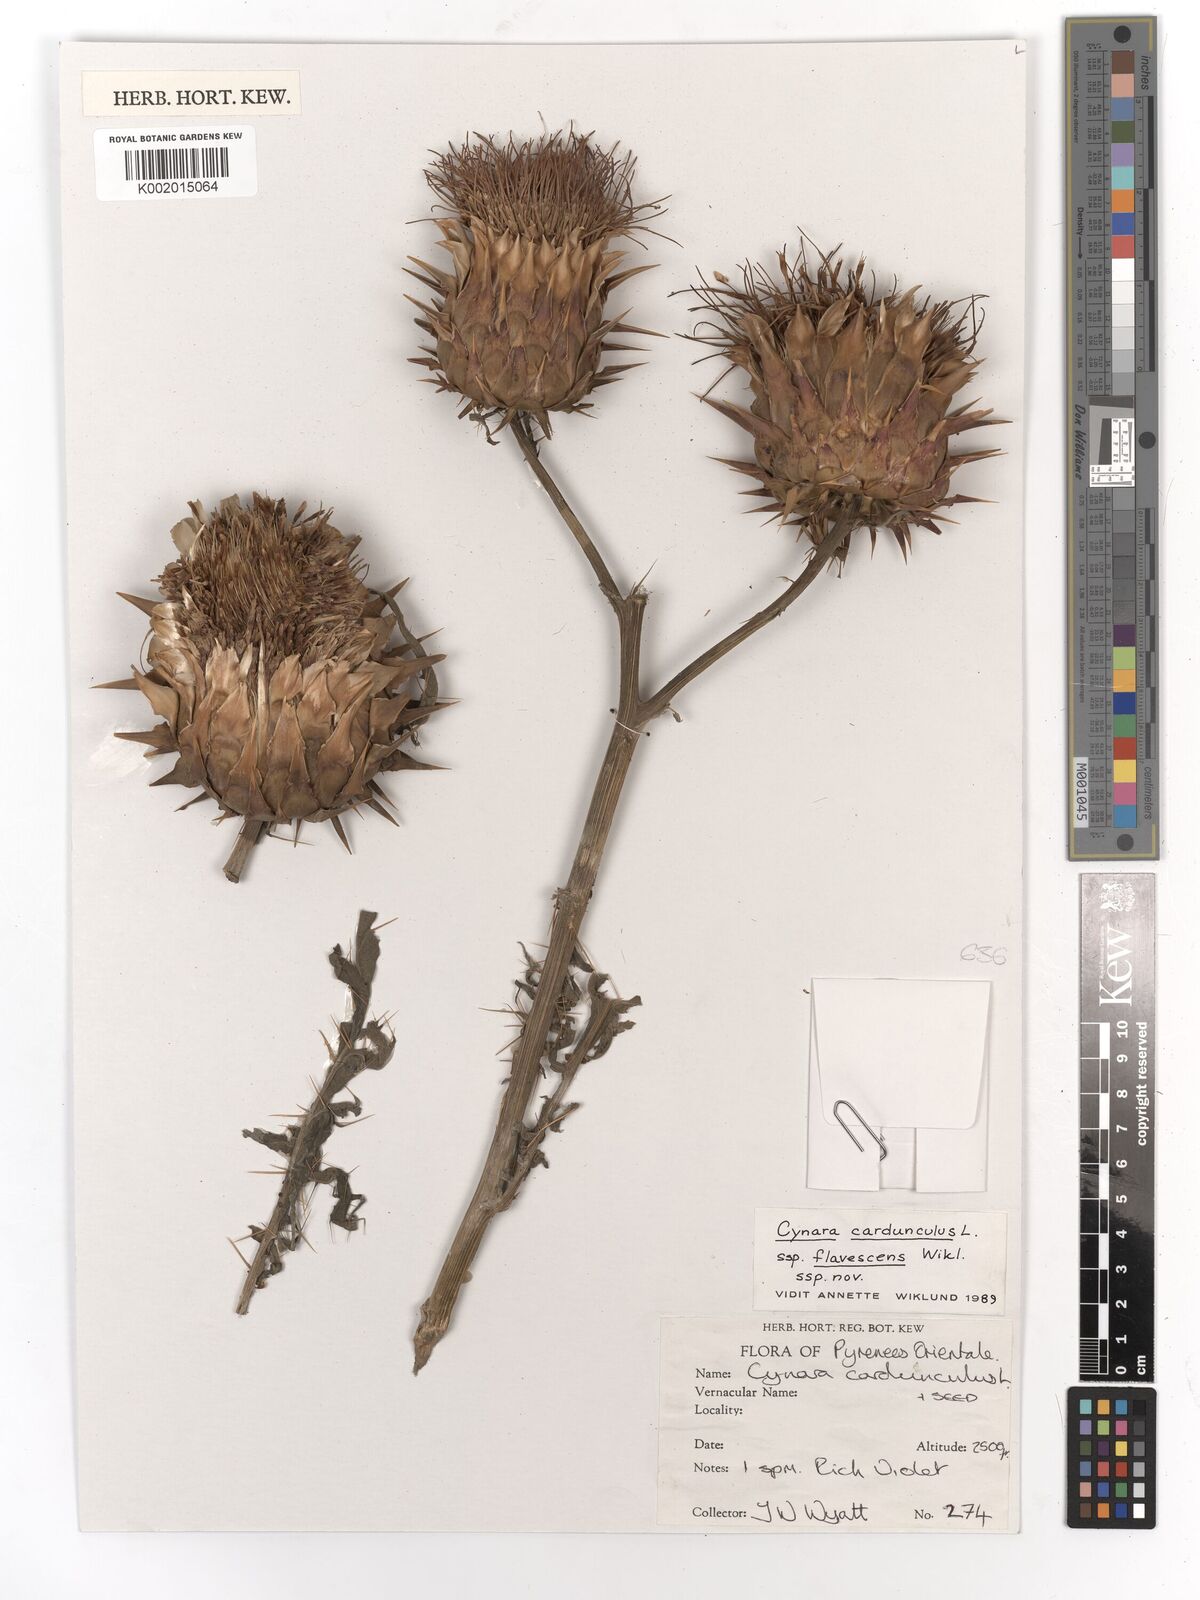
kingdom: Plantae
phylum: Tracheophyta
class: Magnoliopsida
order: Asterales
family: Asteraceae
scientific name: Asteraceae
